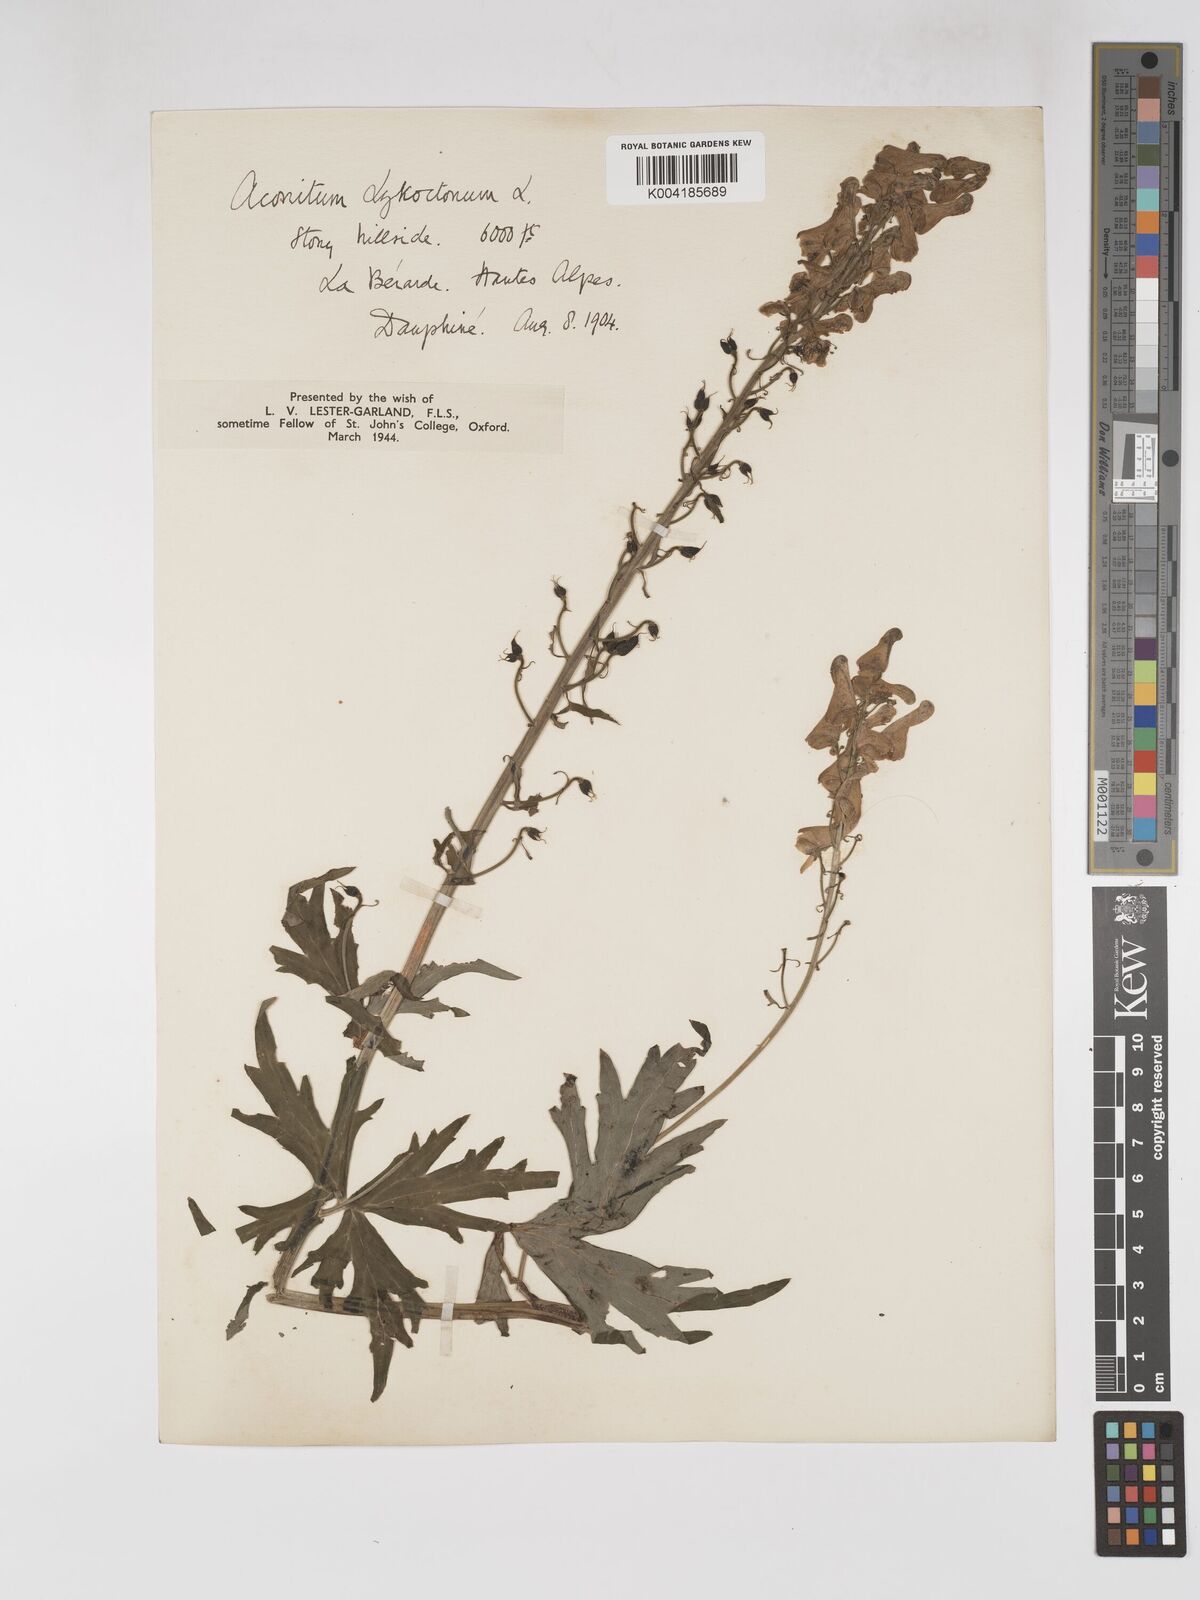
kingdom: Plantae
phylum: Tracheophyta
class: Magnoliopsida
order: Ranunculales
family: Ranunculaceae
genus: Aconitum
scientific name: Aconitum lycoctonum
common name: Wolf's-bane
